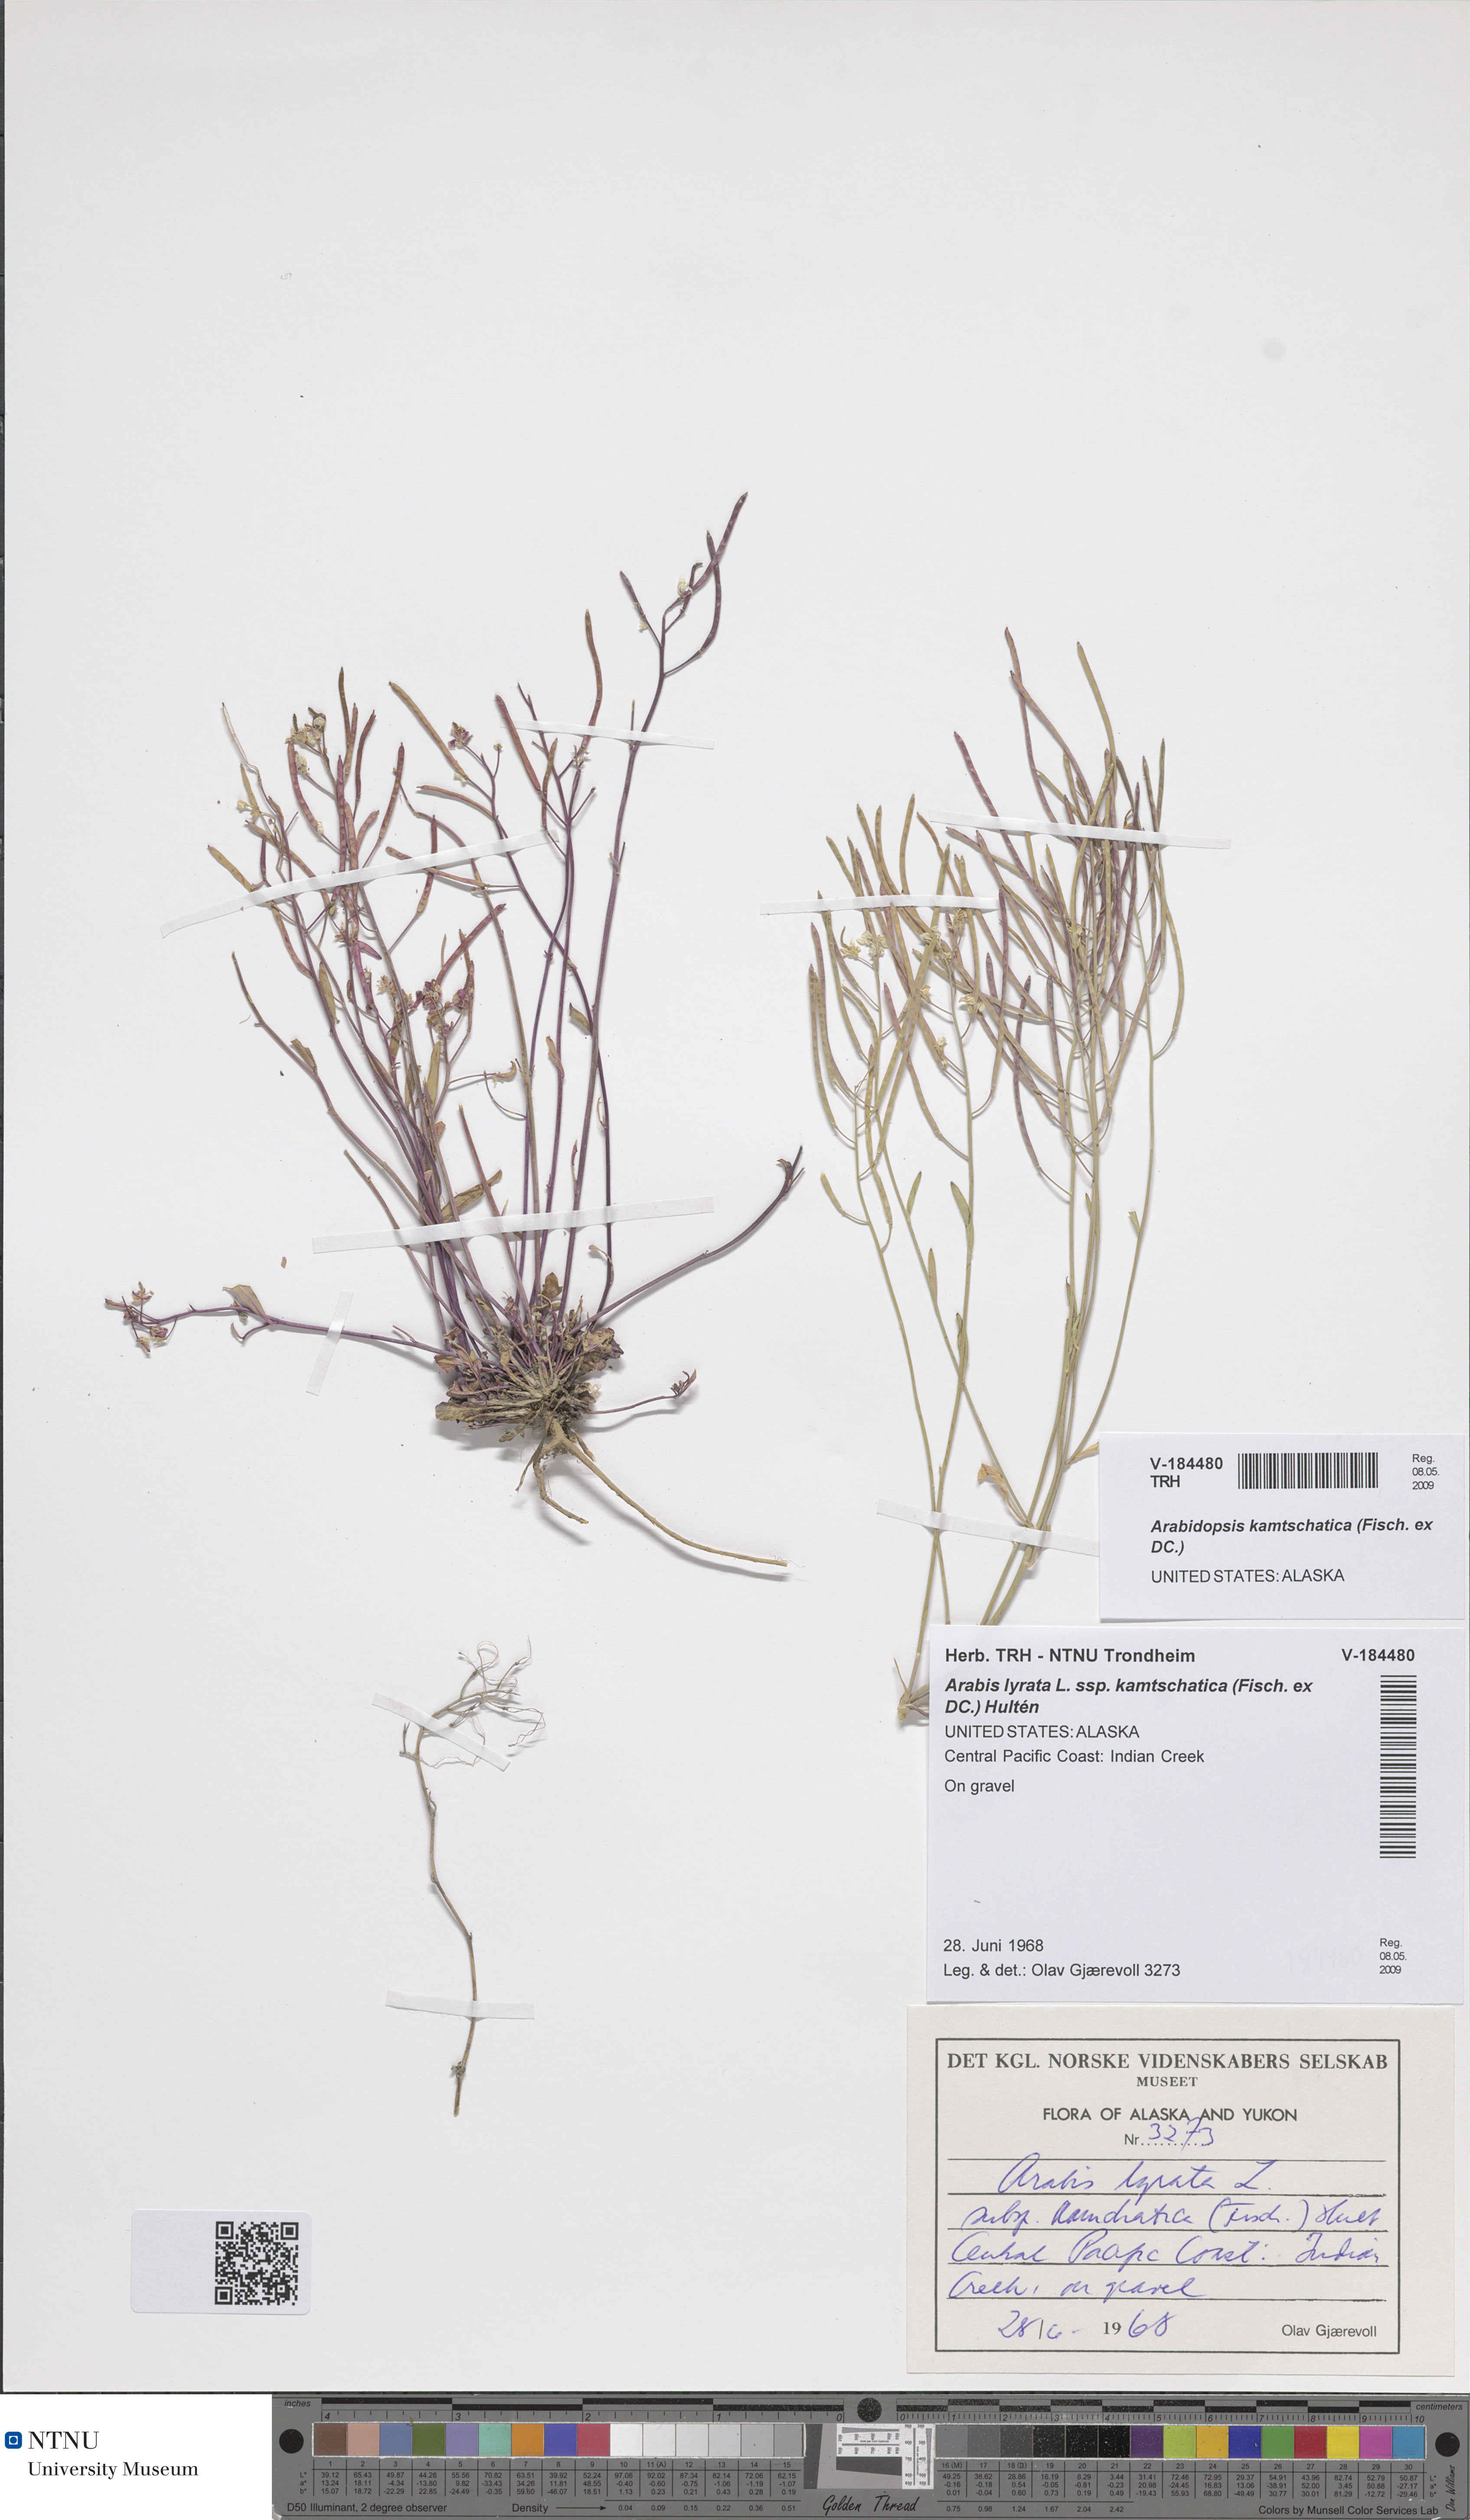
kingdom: Plantae
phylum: Tracheophyta
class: Magnoliopsida
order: Brassicales
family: Brassicaceae
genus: Arabidopsis
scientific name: Arabidopsis lyrata
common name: Lyrate rockcress
